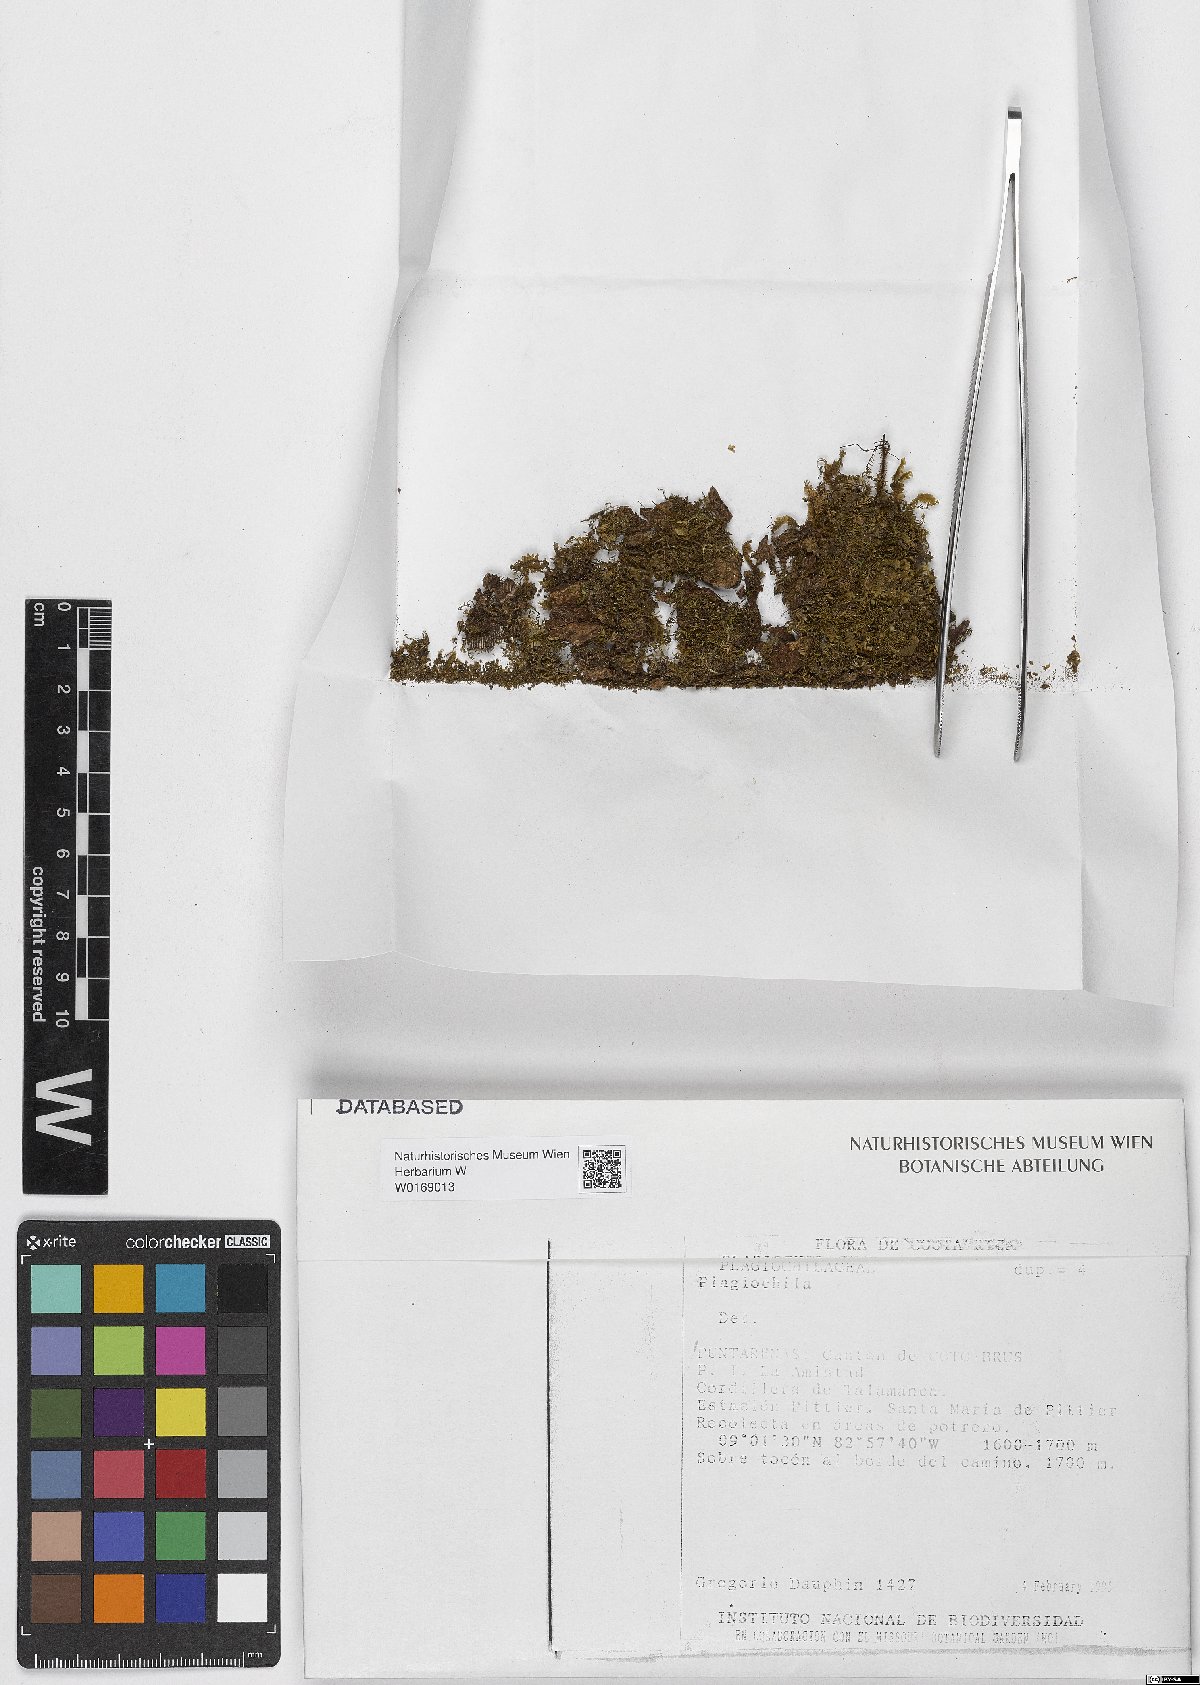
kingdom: Plantae
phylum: Marchantiophyta
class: Jungermanniopsida
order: Jungermanniales
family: Plagiochilaceae
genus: Plagiochila
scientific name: Plagiochila
